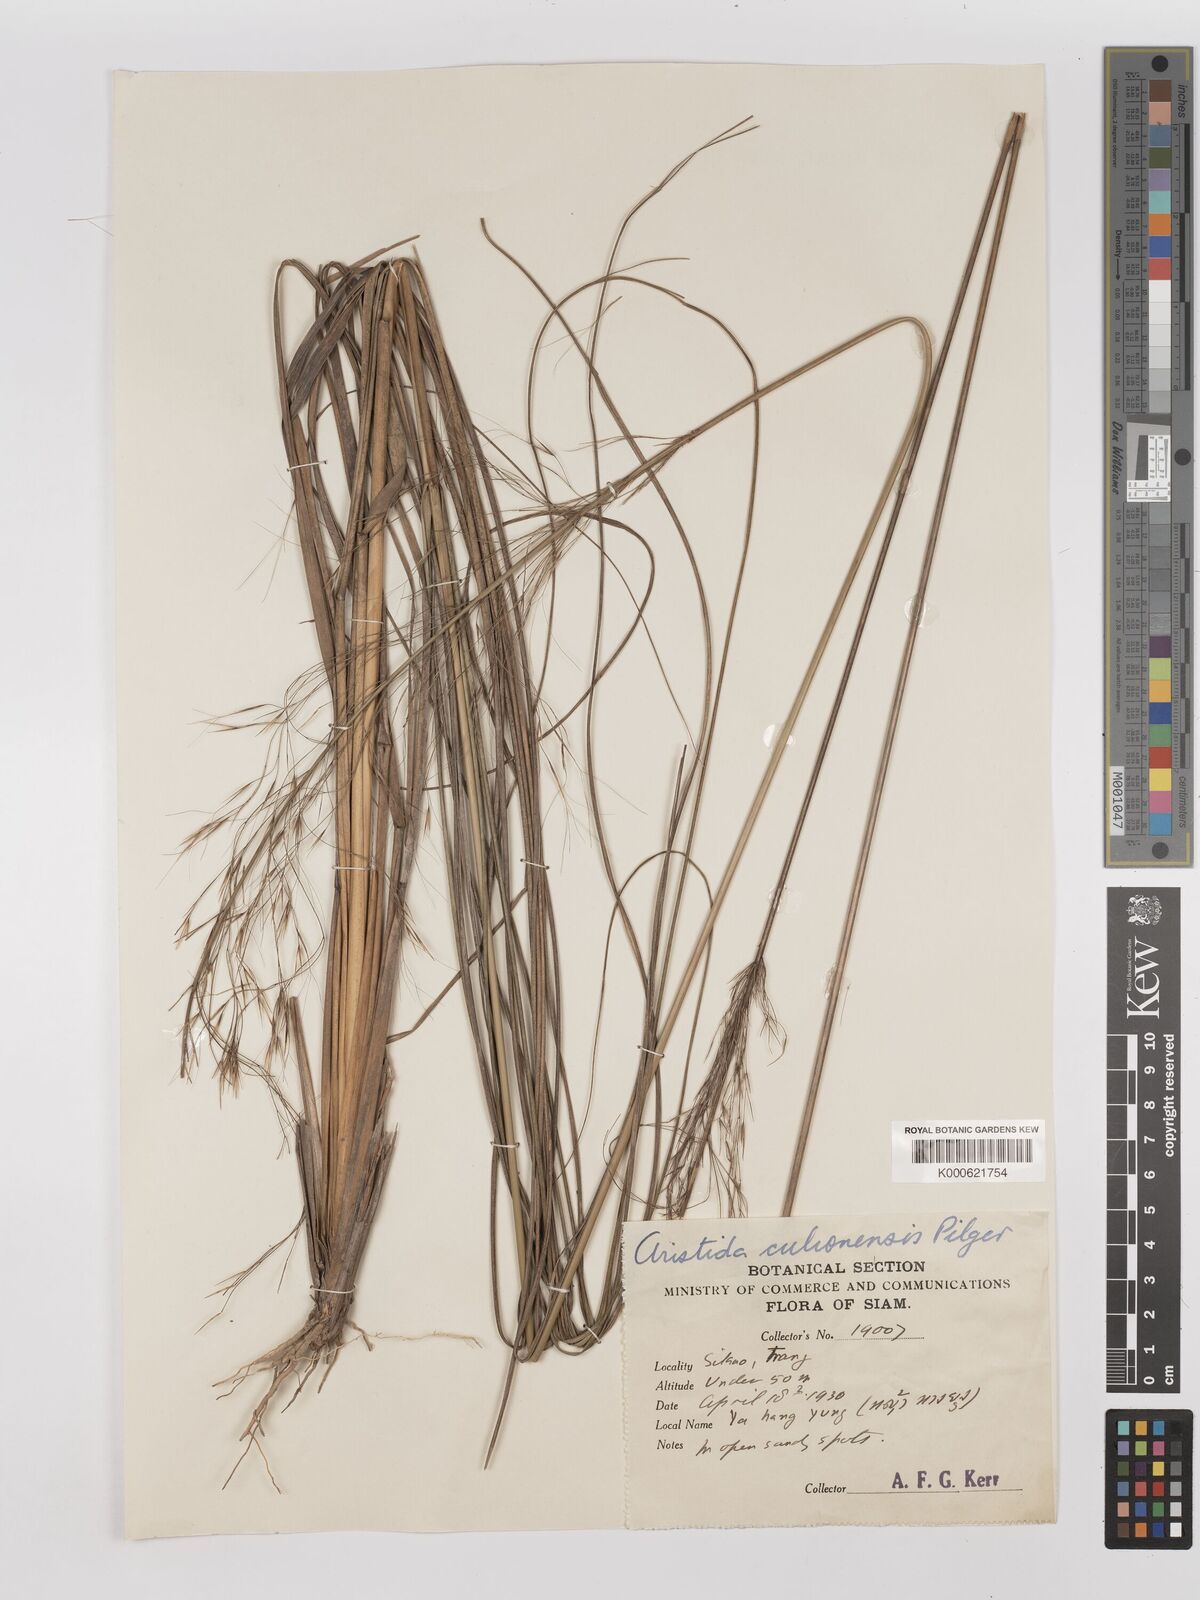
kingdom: Plantae
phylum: Tracheophyta
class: Liliopsida
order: Poales
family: Poaceae
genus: Aristida
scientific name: Aristida culionensis
